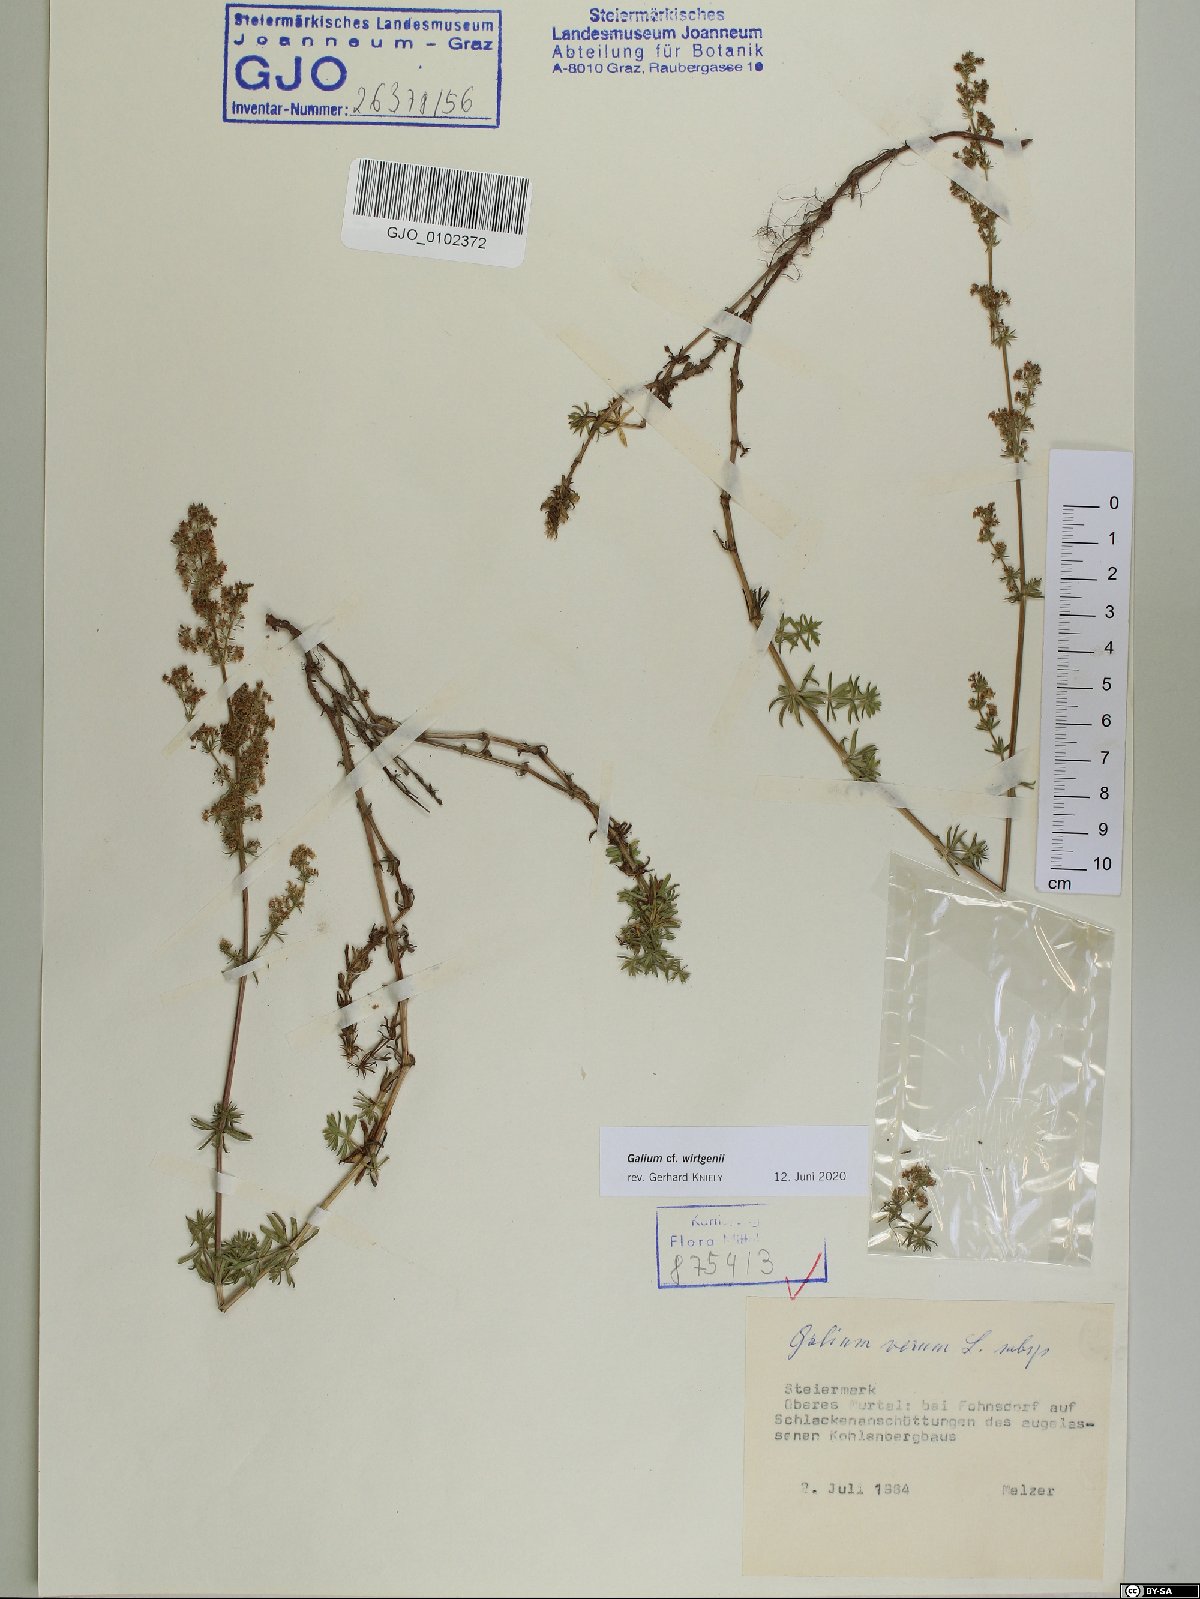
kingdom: Plantae
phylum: Tracheophyta
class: Magnoliopsida
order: Gentianales
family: Rubiaceae
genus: Galium
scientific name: Galium verum
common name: Lady's bedstraw
